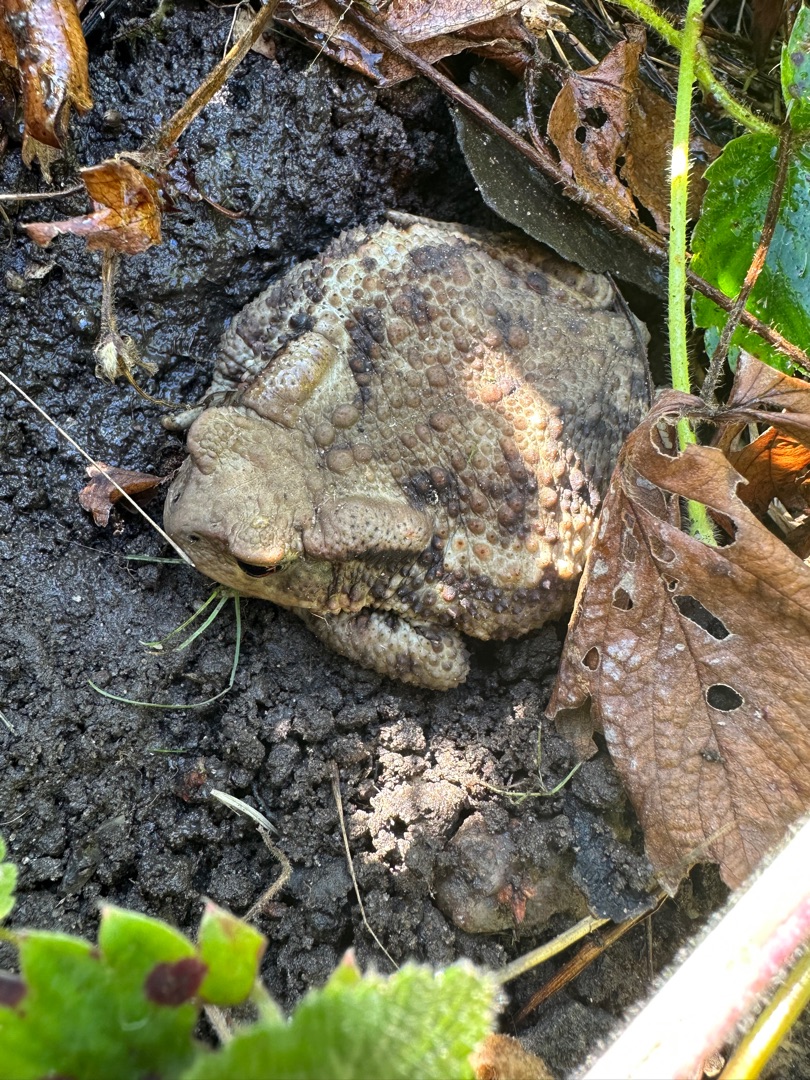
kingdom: Animalia
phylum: Chordata
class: Amphibia
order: Anura
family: Bufonidae
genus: Bufo
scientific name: Bufo bufo
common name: Skrubtudse
